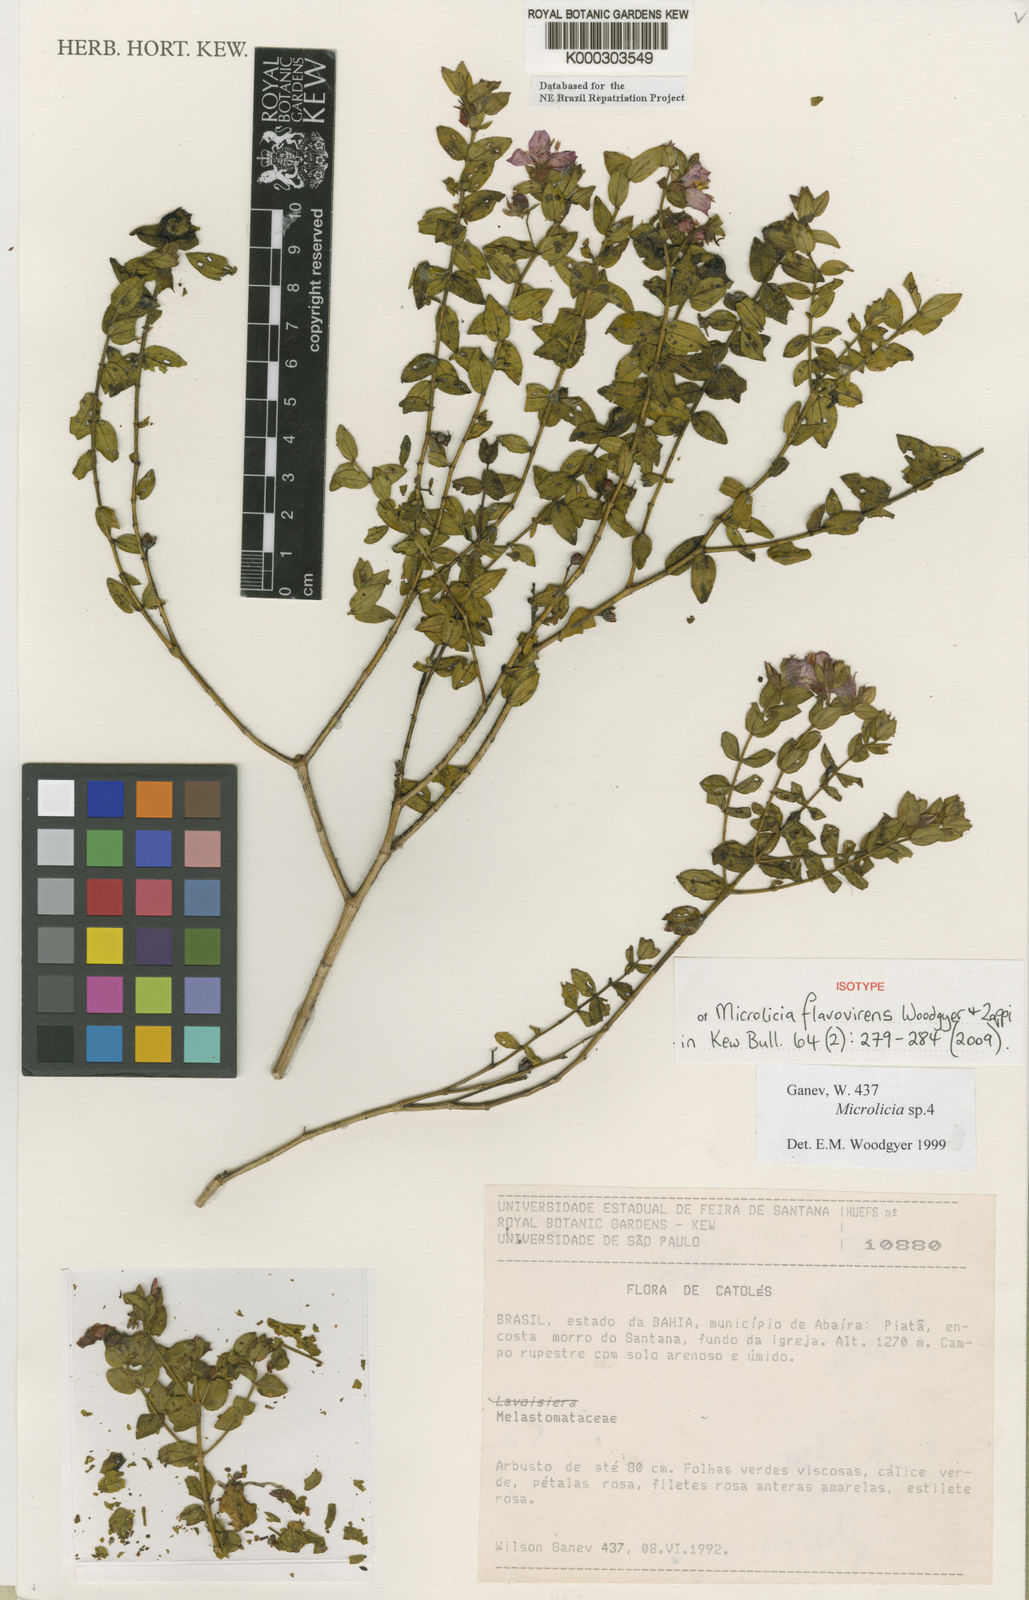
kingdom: Plantae
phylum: Tracheophyta
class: Magnoliopsida
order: Myrtales
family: Melastomataceae
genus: Microlicia
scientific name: Microlicia flavovirens
